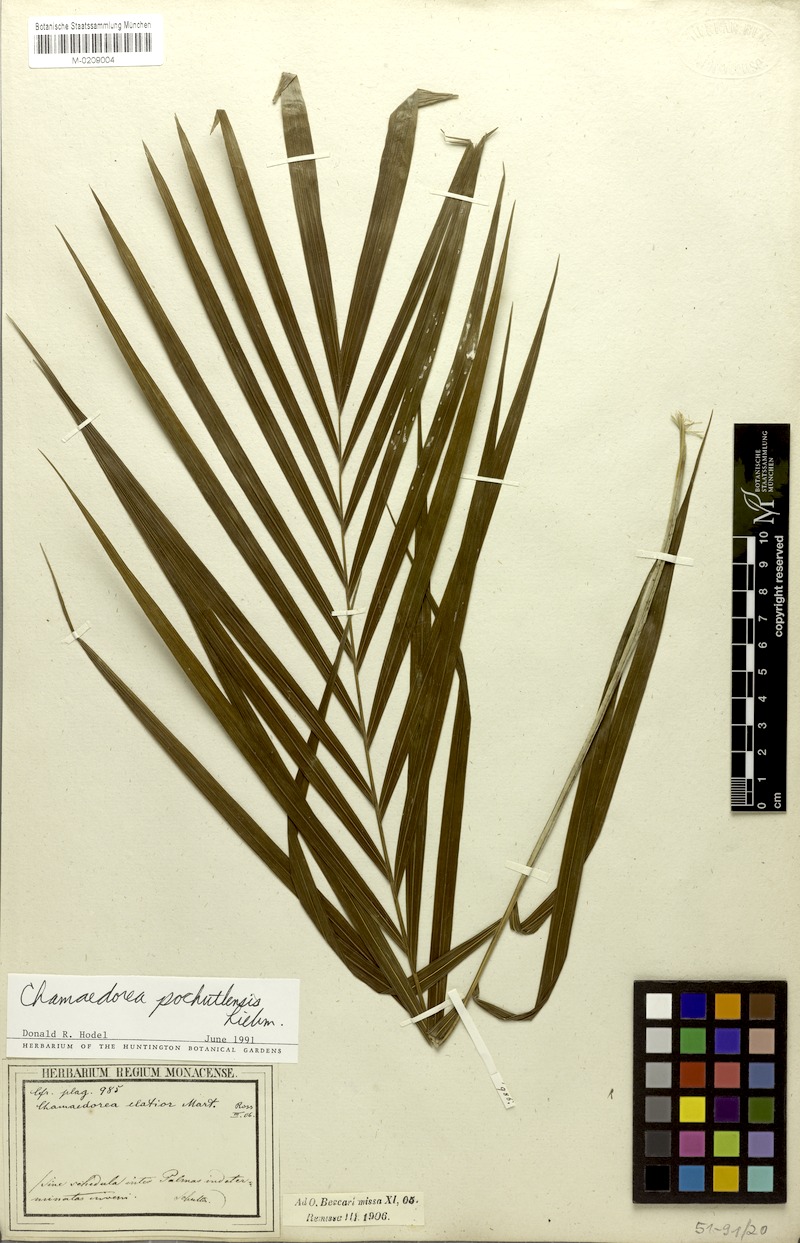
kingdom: Plantae
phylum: Tracheophyta
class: Liliopsida
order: Arecales
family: Arecaceae
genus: Chamaedorea
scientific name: Chamaedorea pochutlensis
